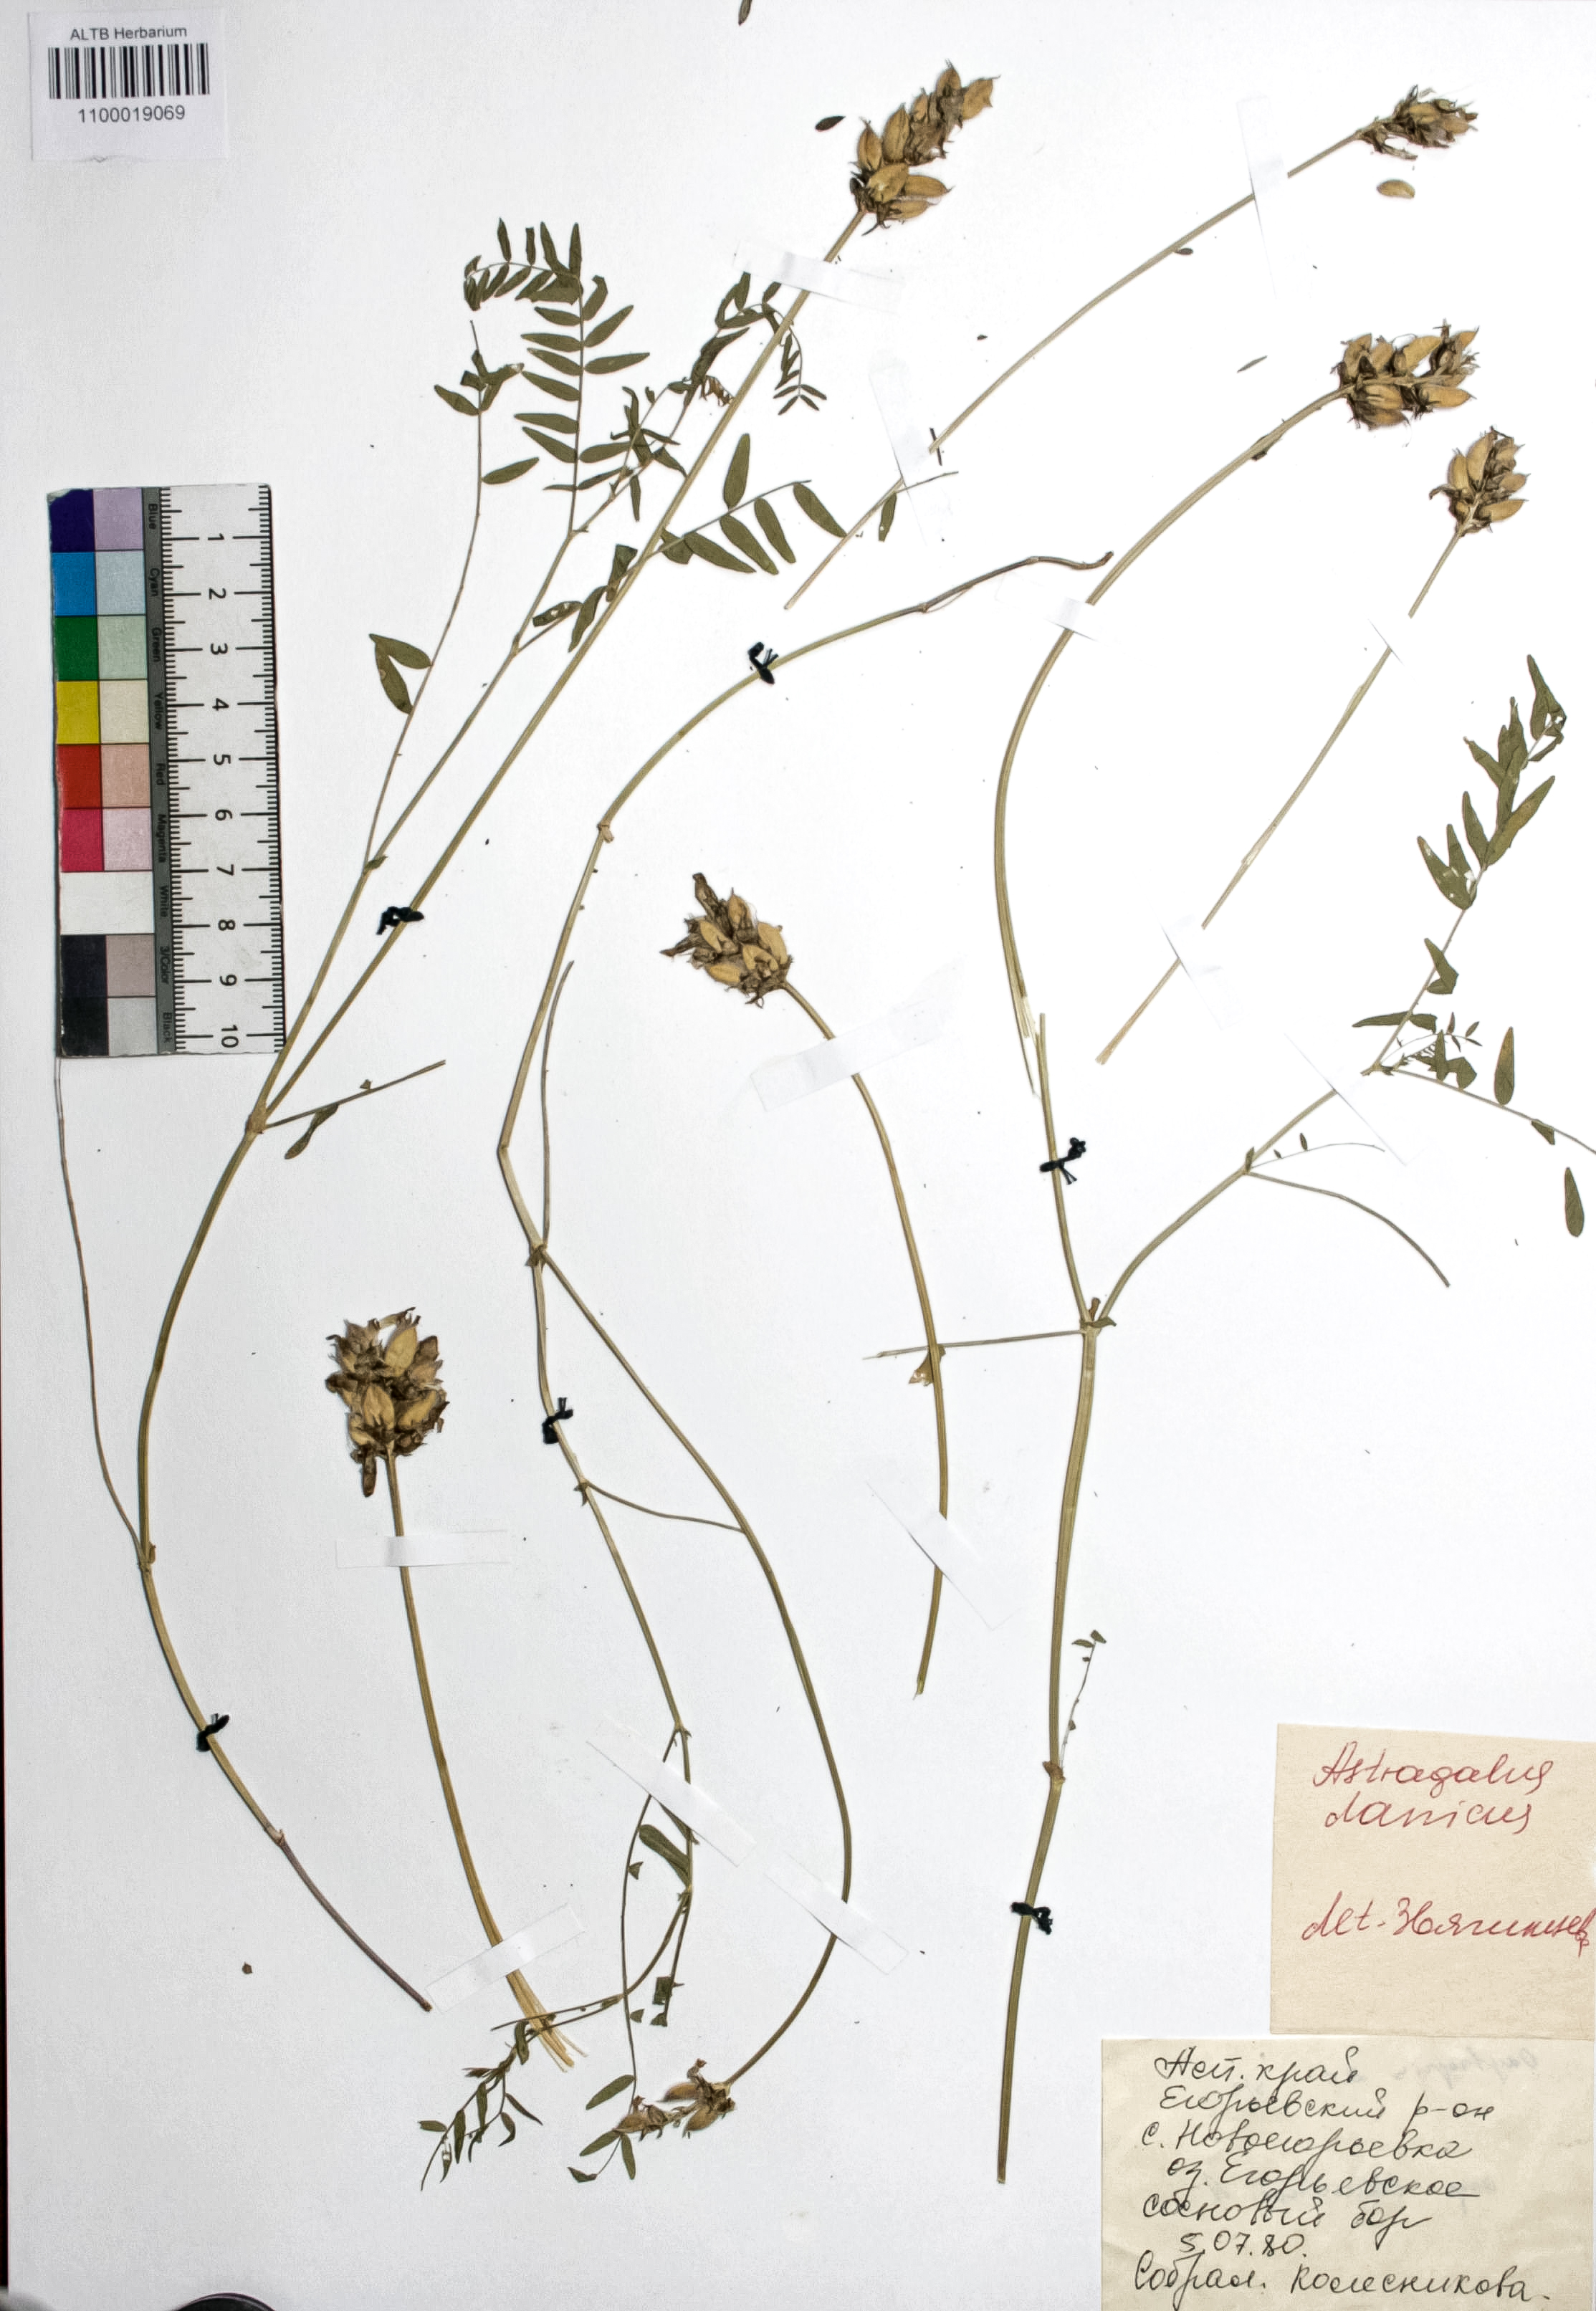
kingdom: Plantae
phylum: Tracheophyta
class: Magnoliopsida
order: Fabales
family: Fabaceae
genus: Astragalus
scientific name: Astragalus danicus
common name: Purple milk-vetch
